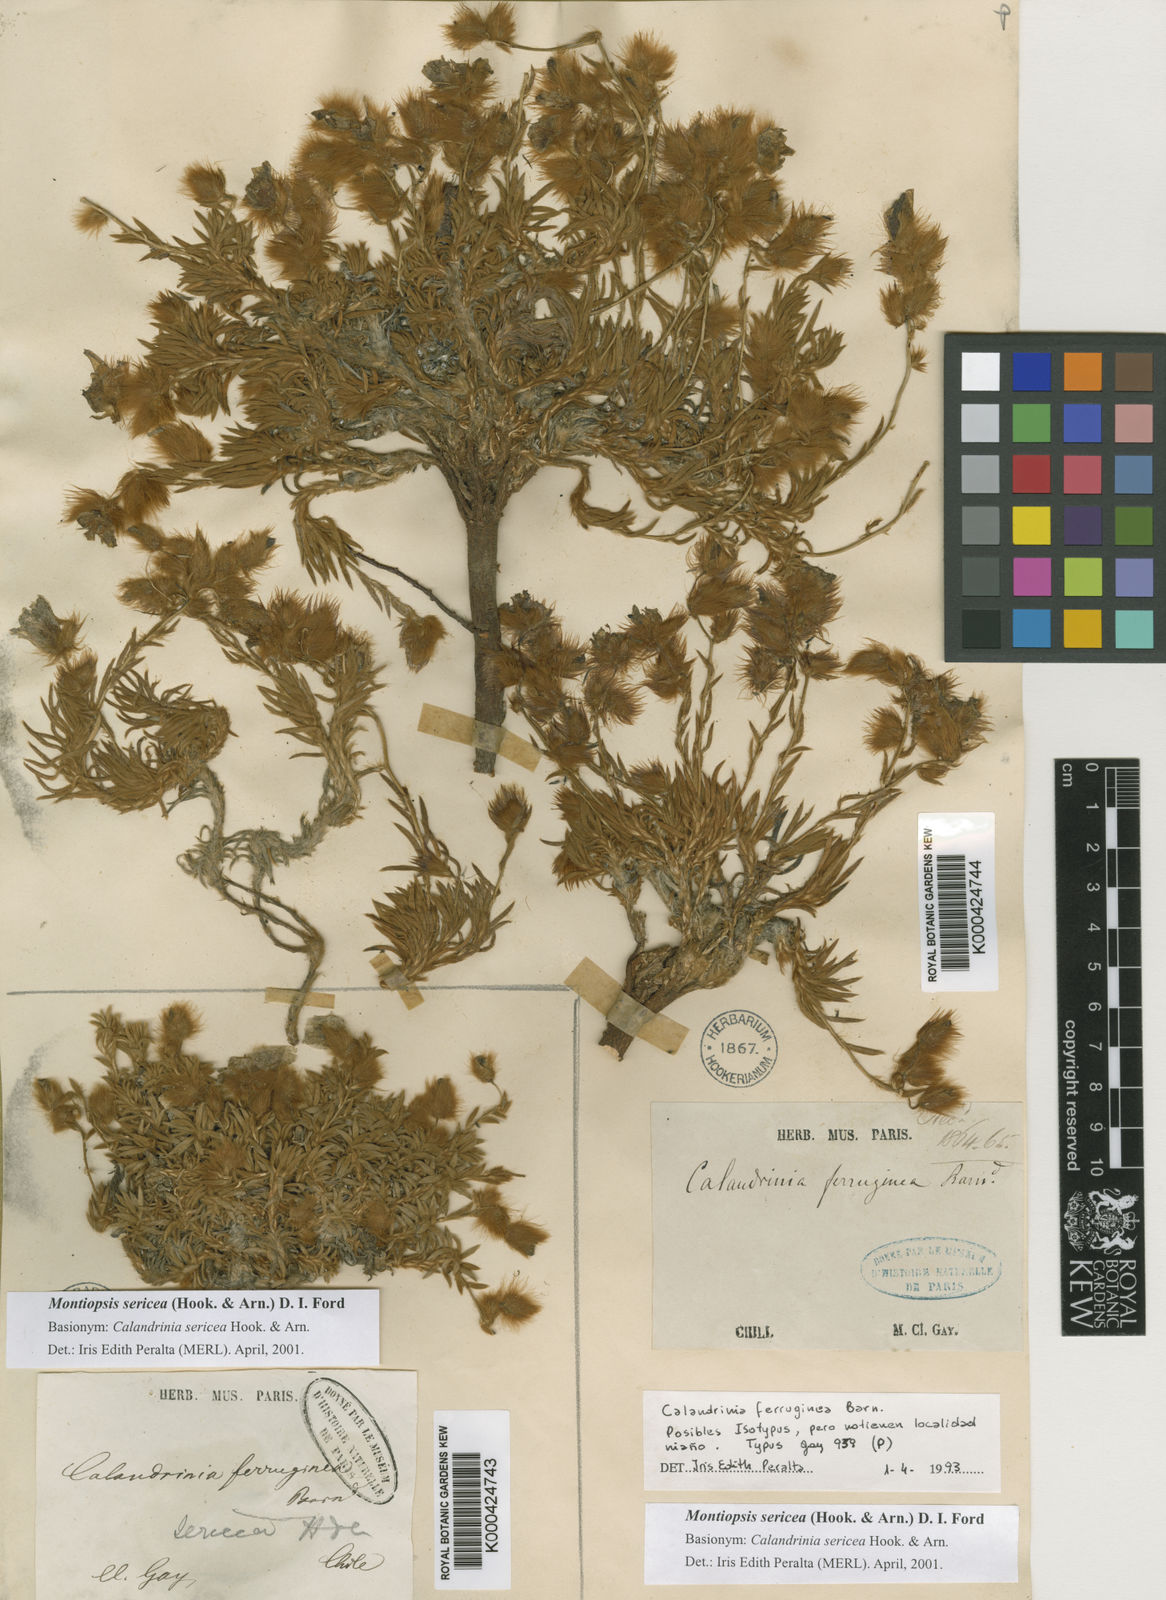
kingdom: Plantae
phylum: Tracheophyta
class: Magnoliopsida
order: Caryophyllales
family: Montiaceae
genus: Montiopsis
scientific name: Montiopsis sericea
